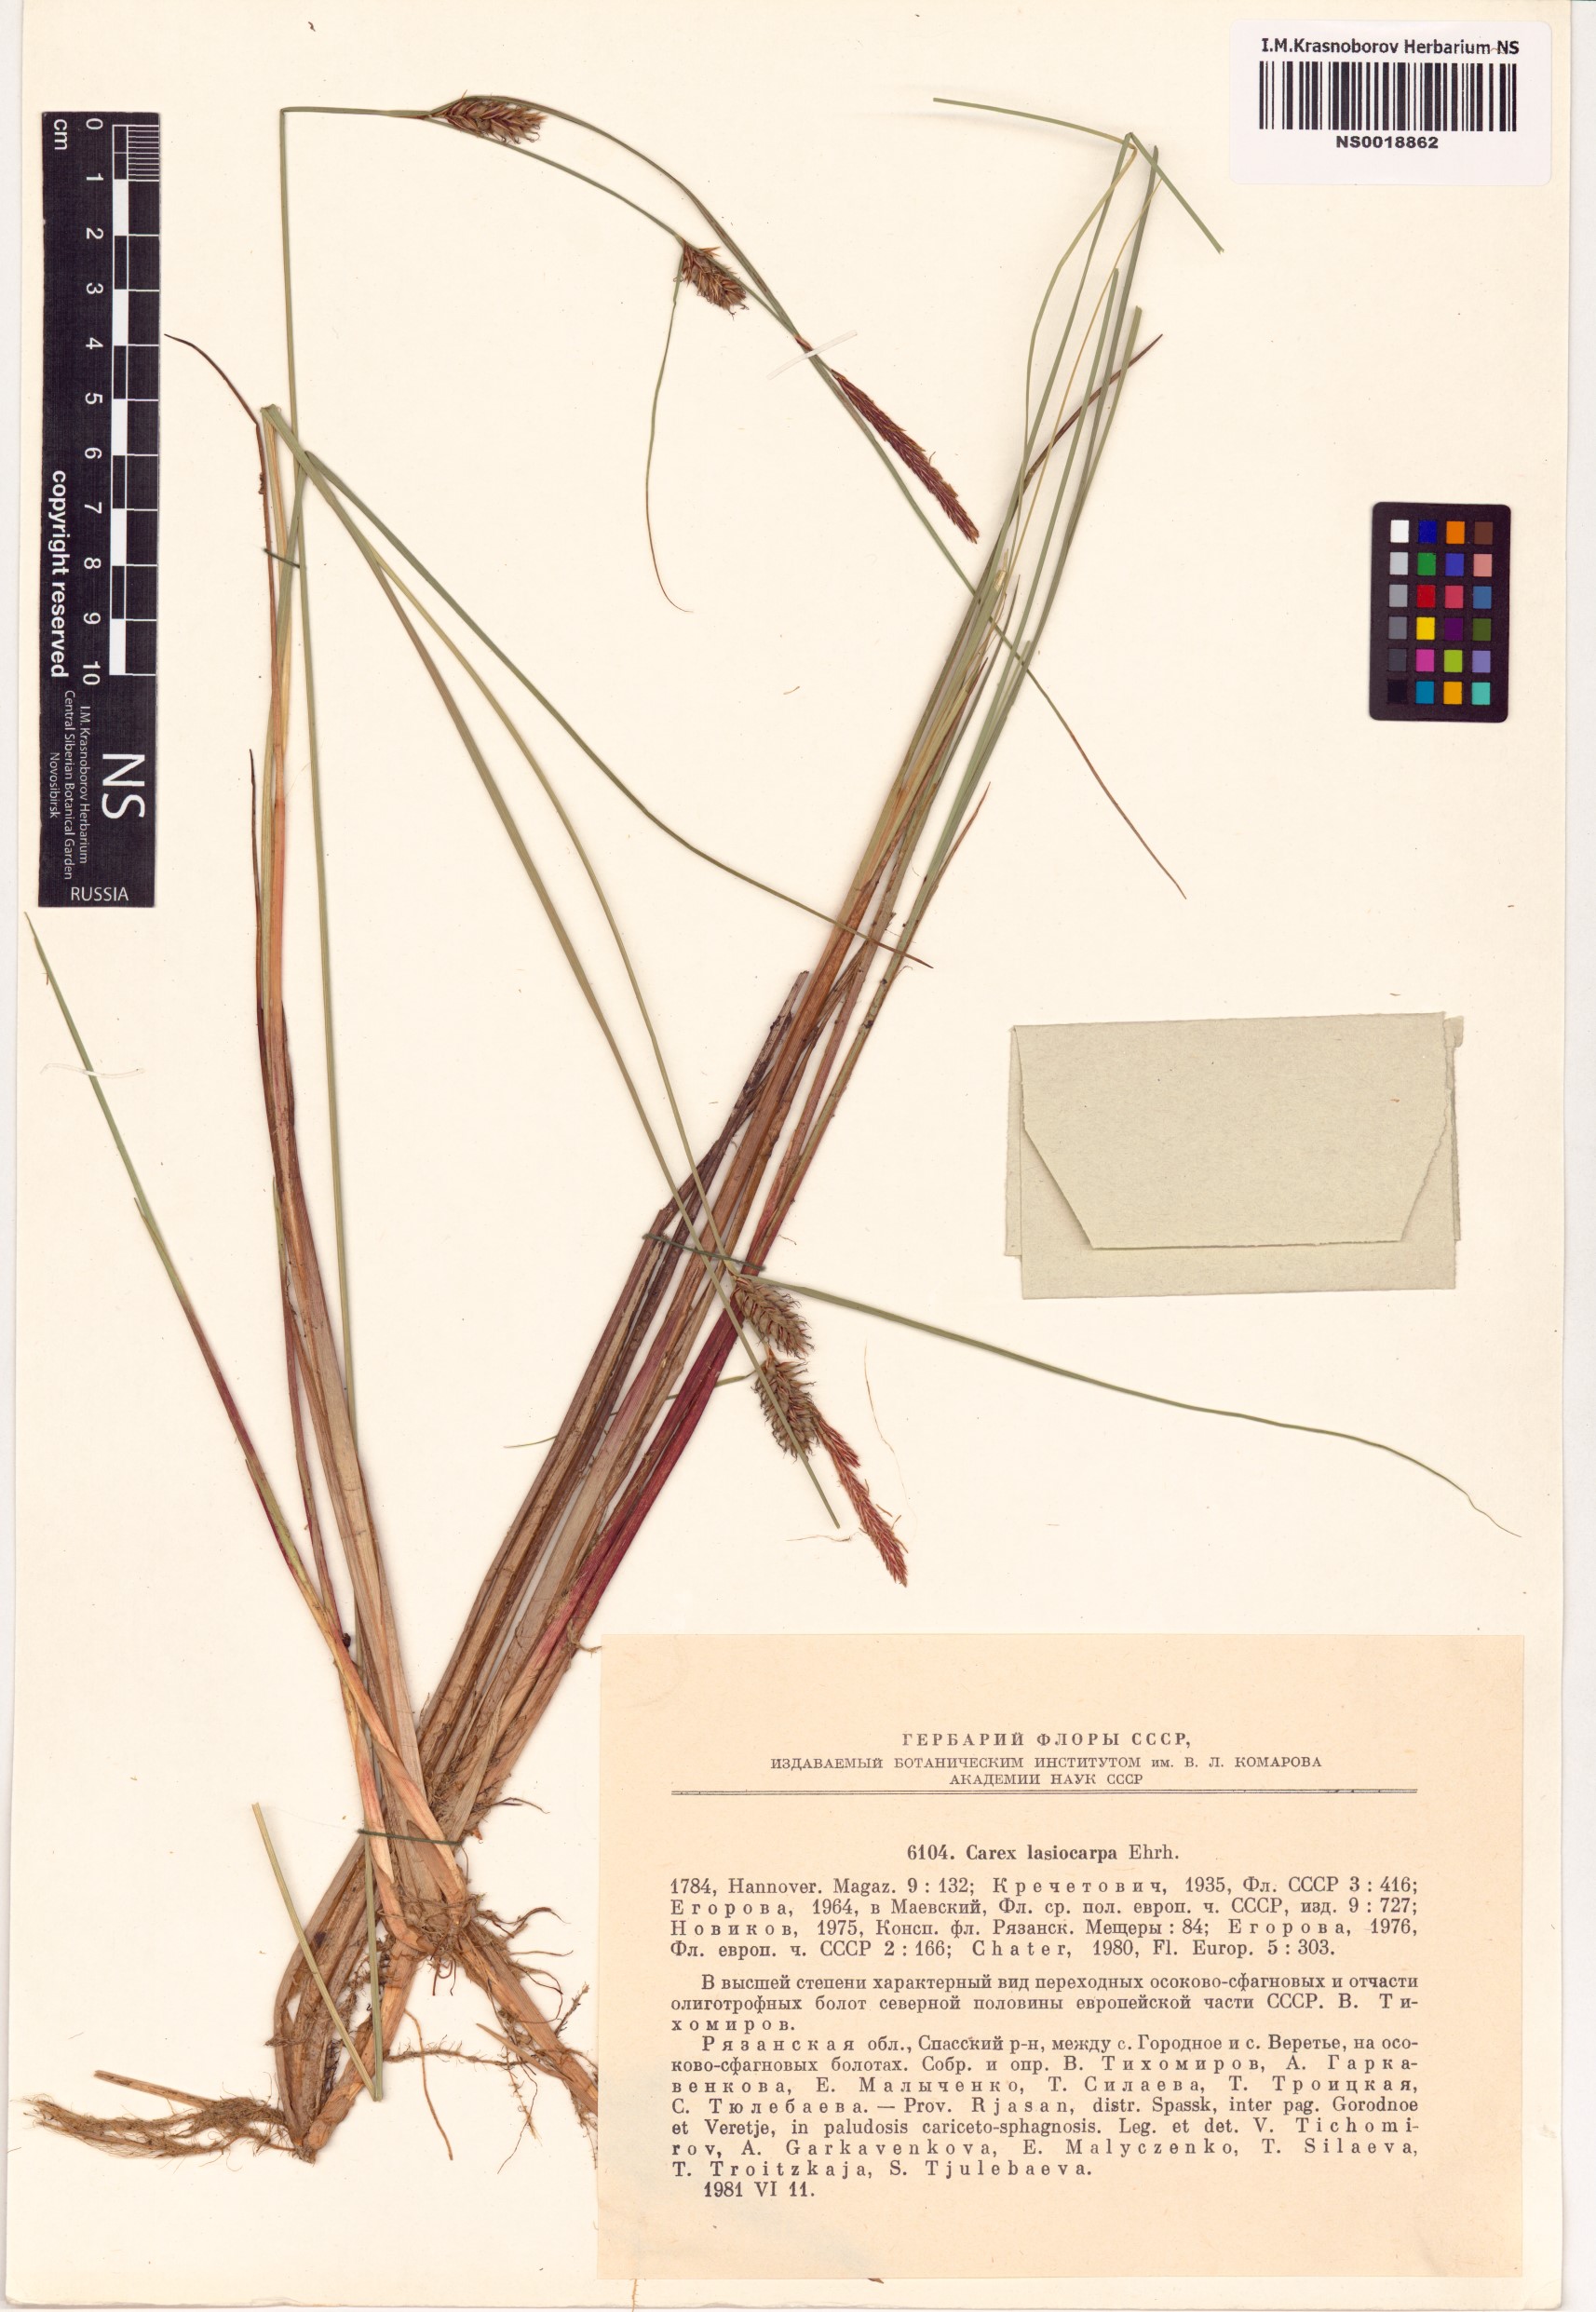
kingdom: Plantae
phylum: Tracheophyta
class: Liliopsida
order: Poales
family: Cyperaceae
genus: Carex
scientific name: Carex lasiocarpa
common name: Slender sedge
